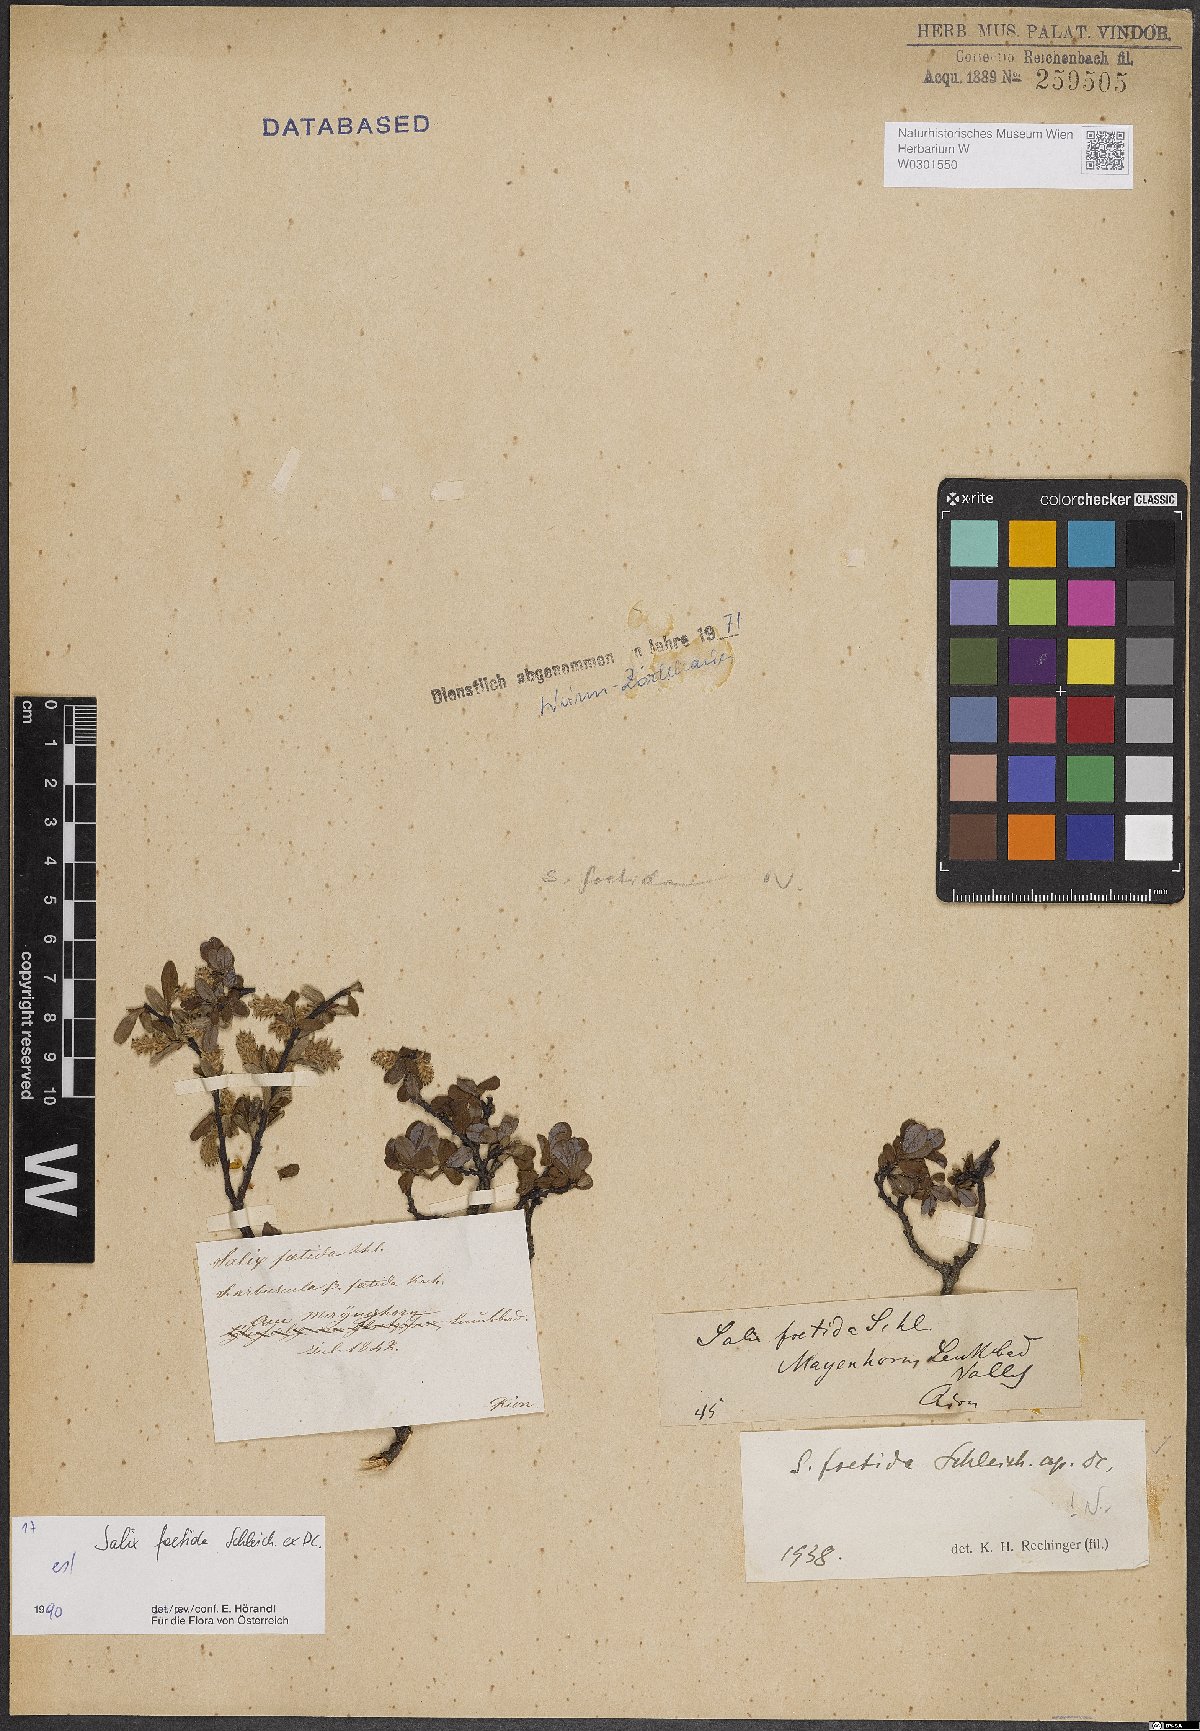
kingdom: Plantae
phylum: Tracheophyta
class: Magnoliopsida
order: Malpighiales
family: Salicaceae
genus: Salix
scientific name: Salix foetida
